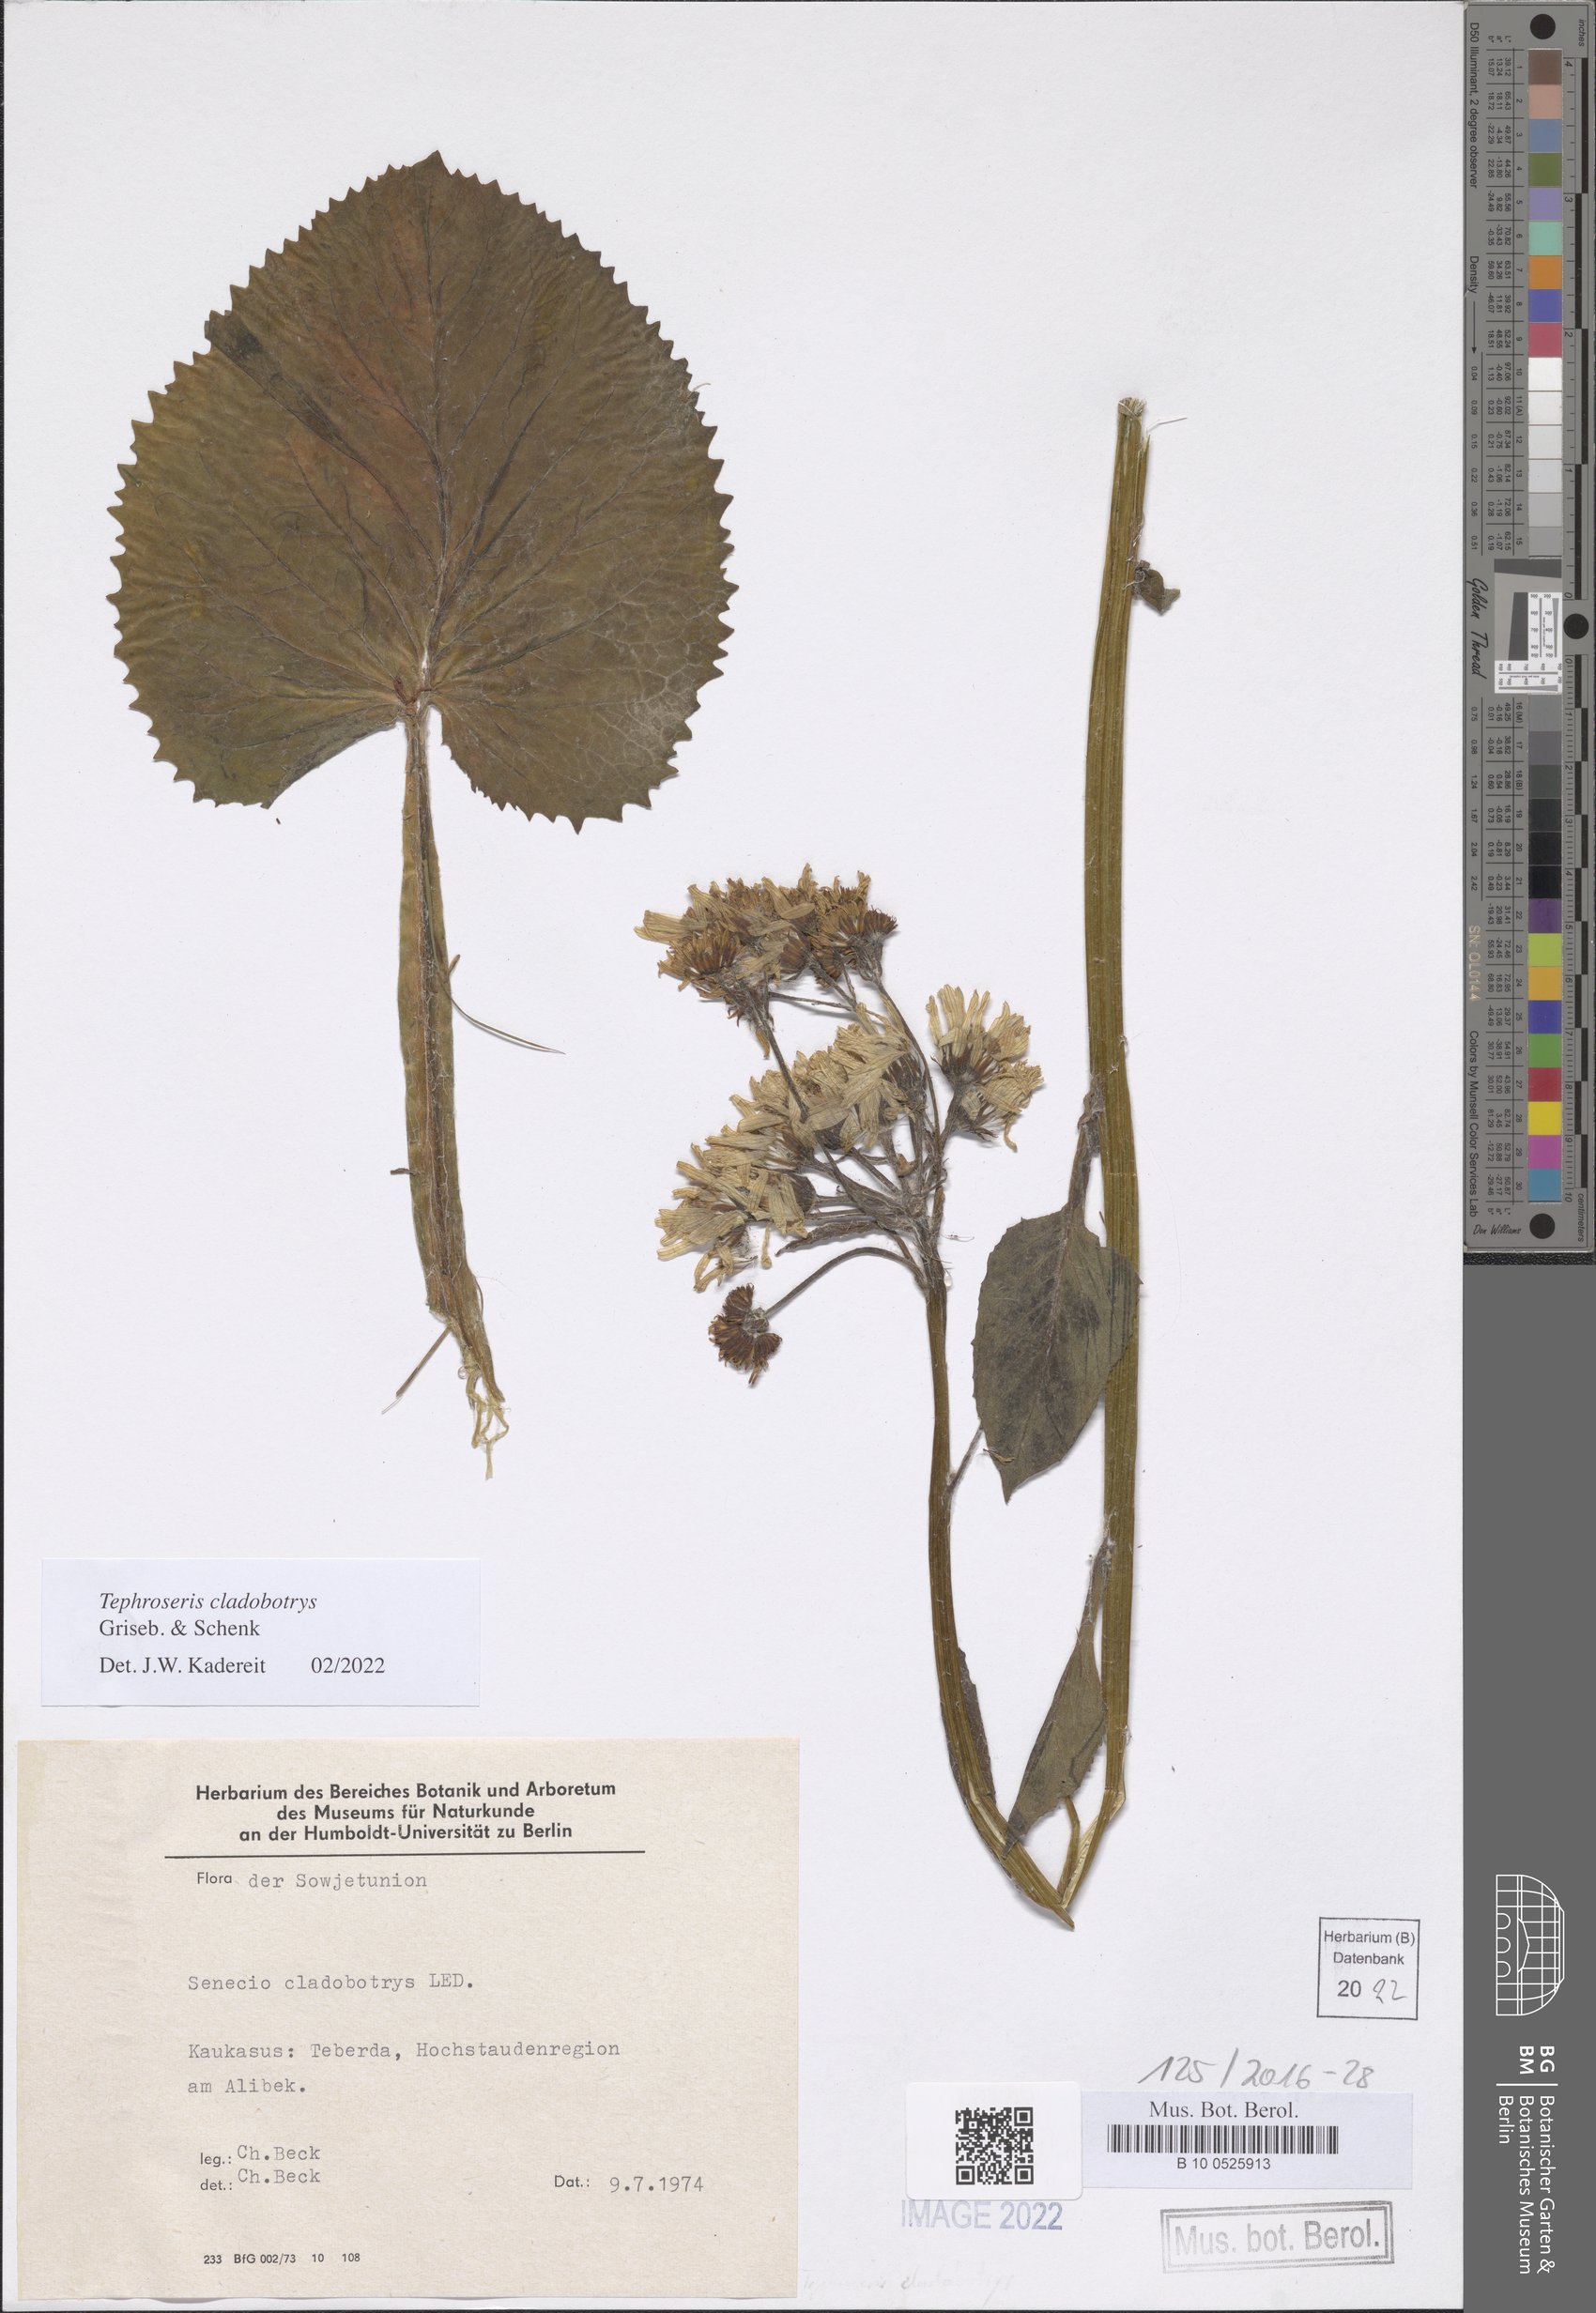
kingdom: Plantae
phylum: Tracheophyta
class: Magnoliopsida
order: Asterales
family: Asteraceae
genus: Tephroseris
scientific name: Tephroseris cladobotrys
